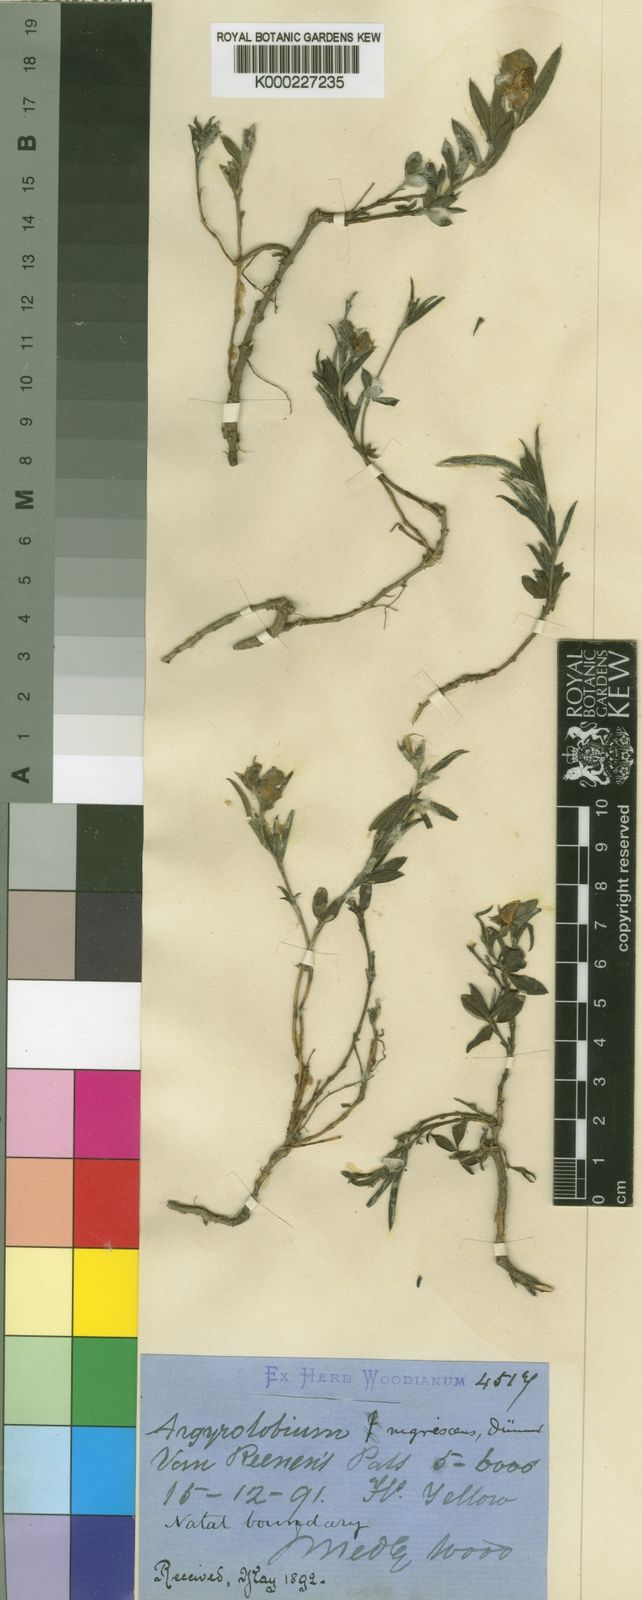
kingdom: Plantae
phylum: Tracheophyta
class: Magnoliopsida
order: Fabales
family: Fabaceae
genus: Argyrolobium
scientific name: Argyrolobium nigrescens
